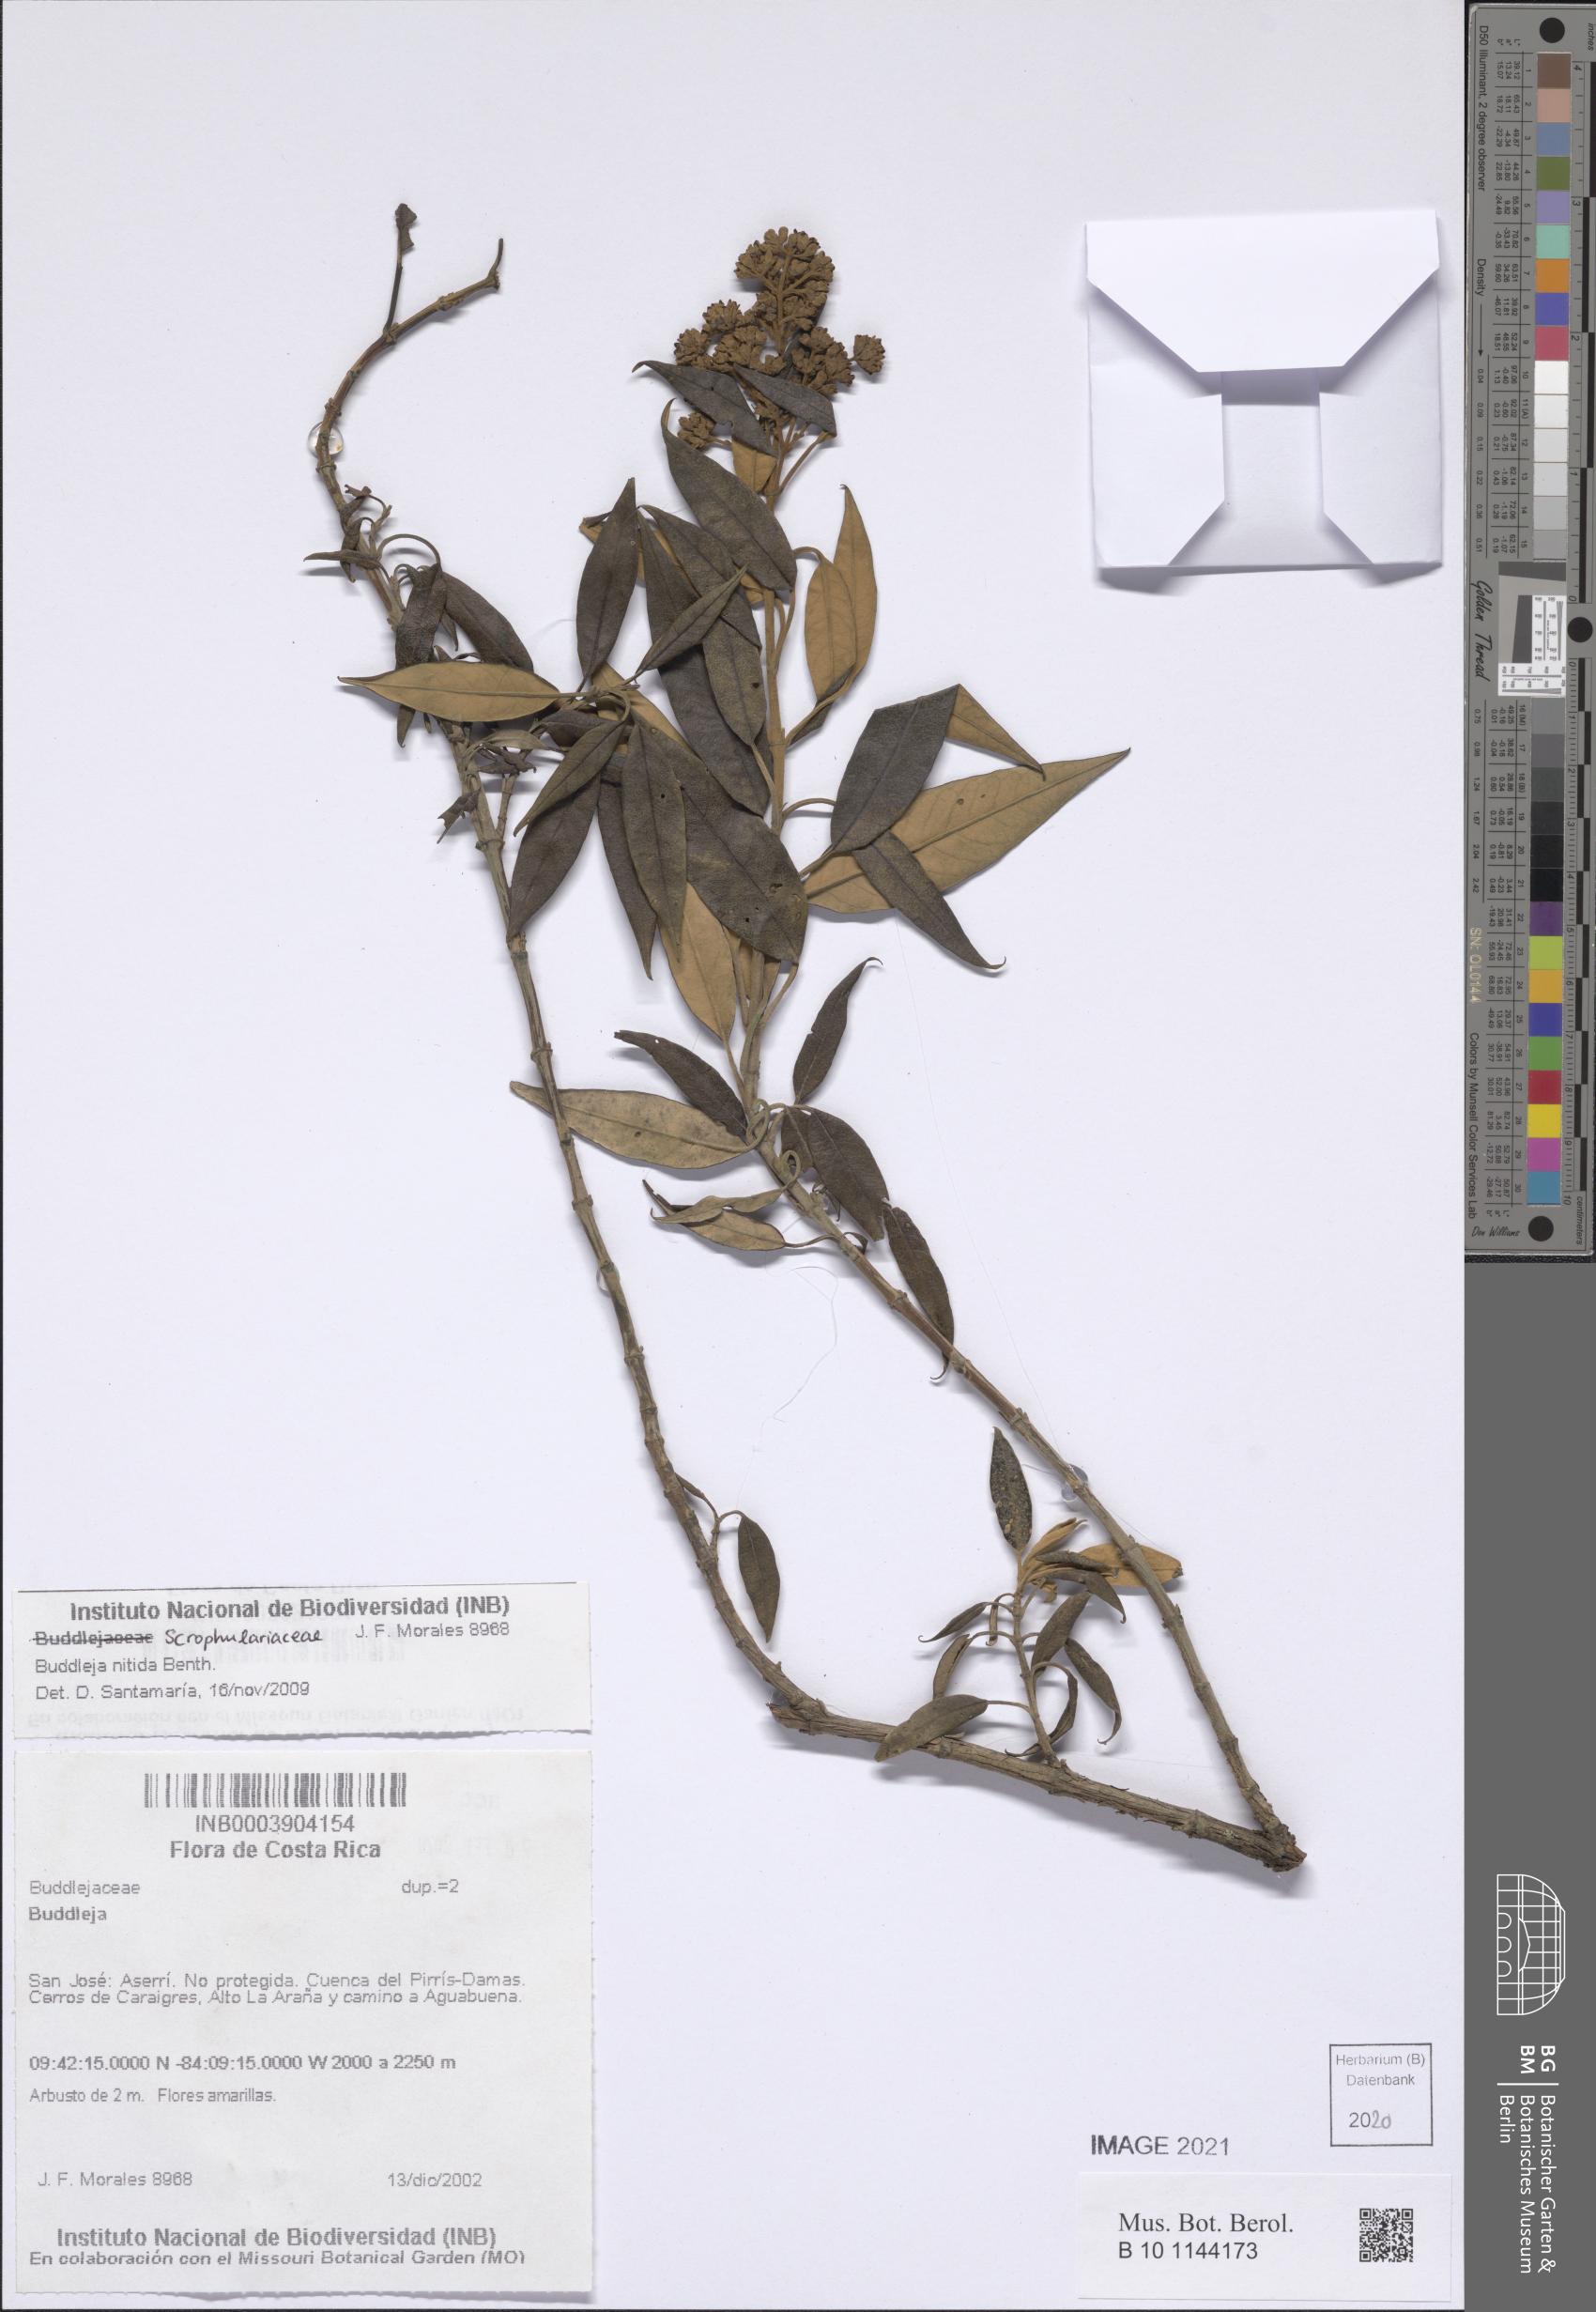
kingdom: Plantae
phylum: Tracheophyta
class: Magnoliopsida
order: Lamiales
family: Scrophulariaceae
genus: Buddleja
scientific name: Buddleja nitida
